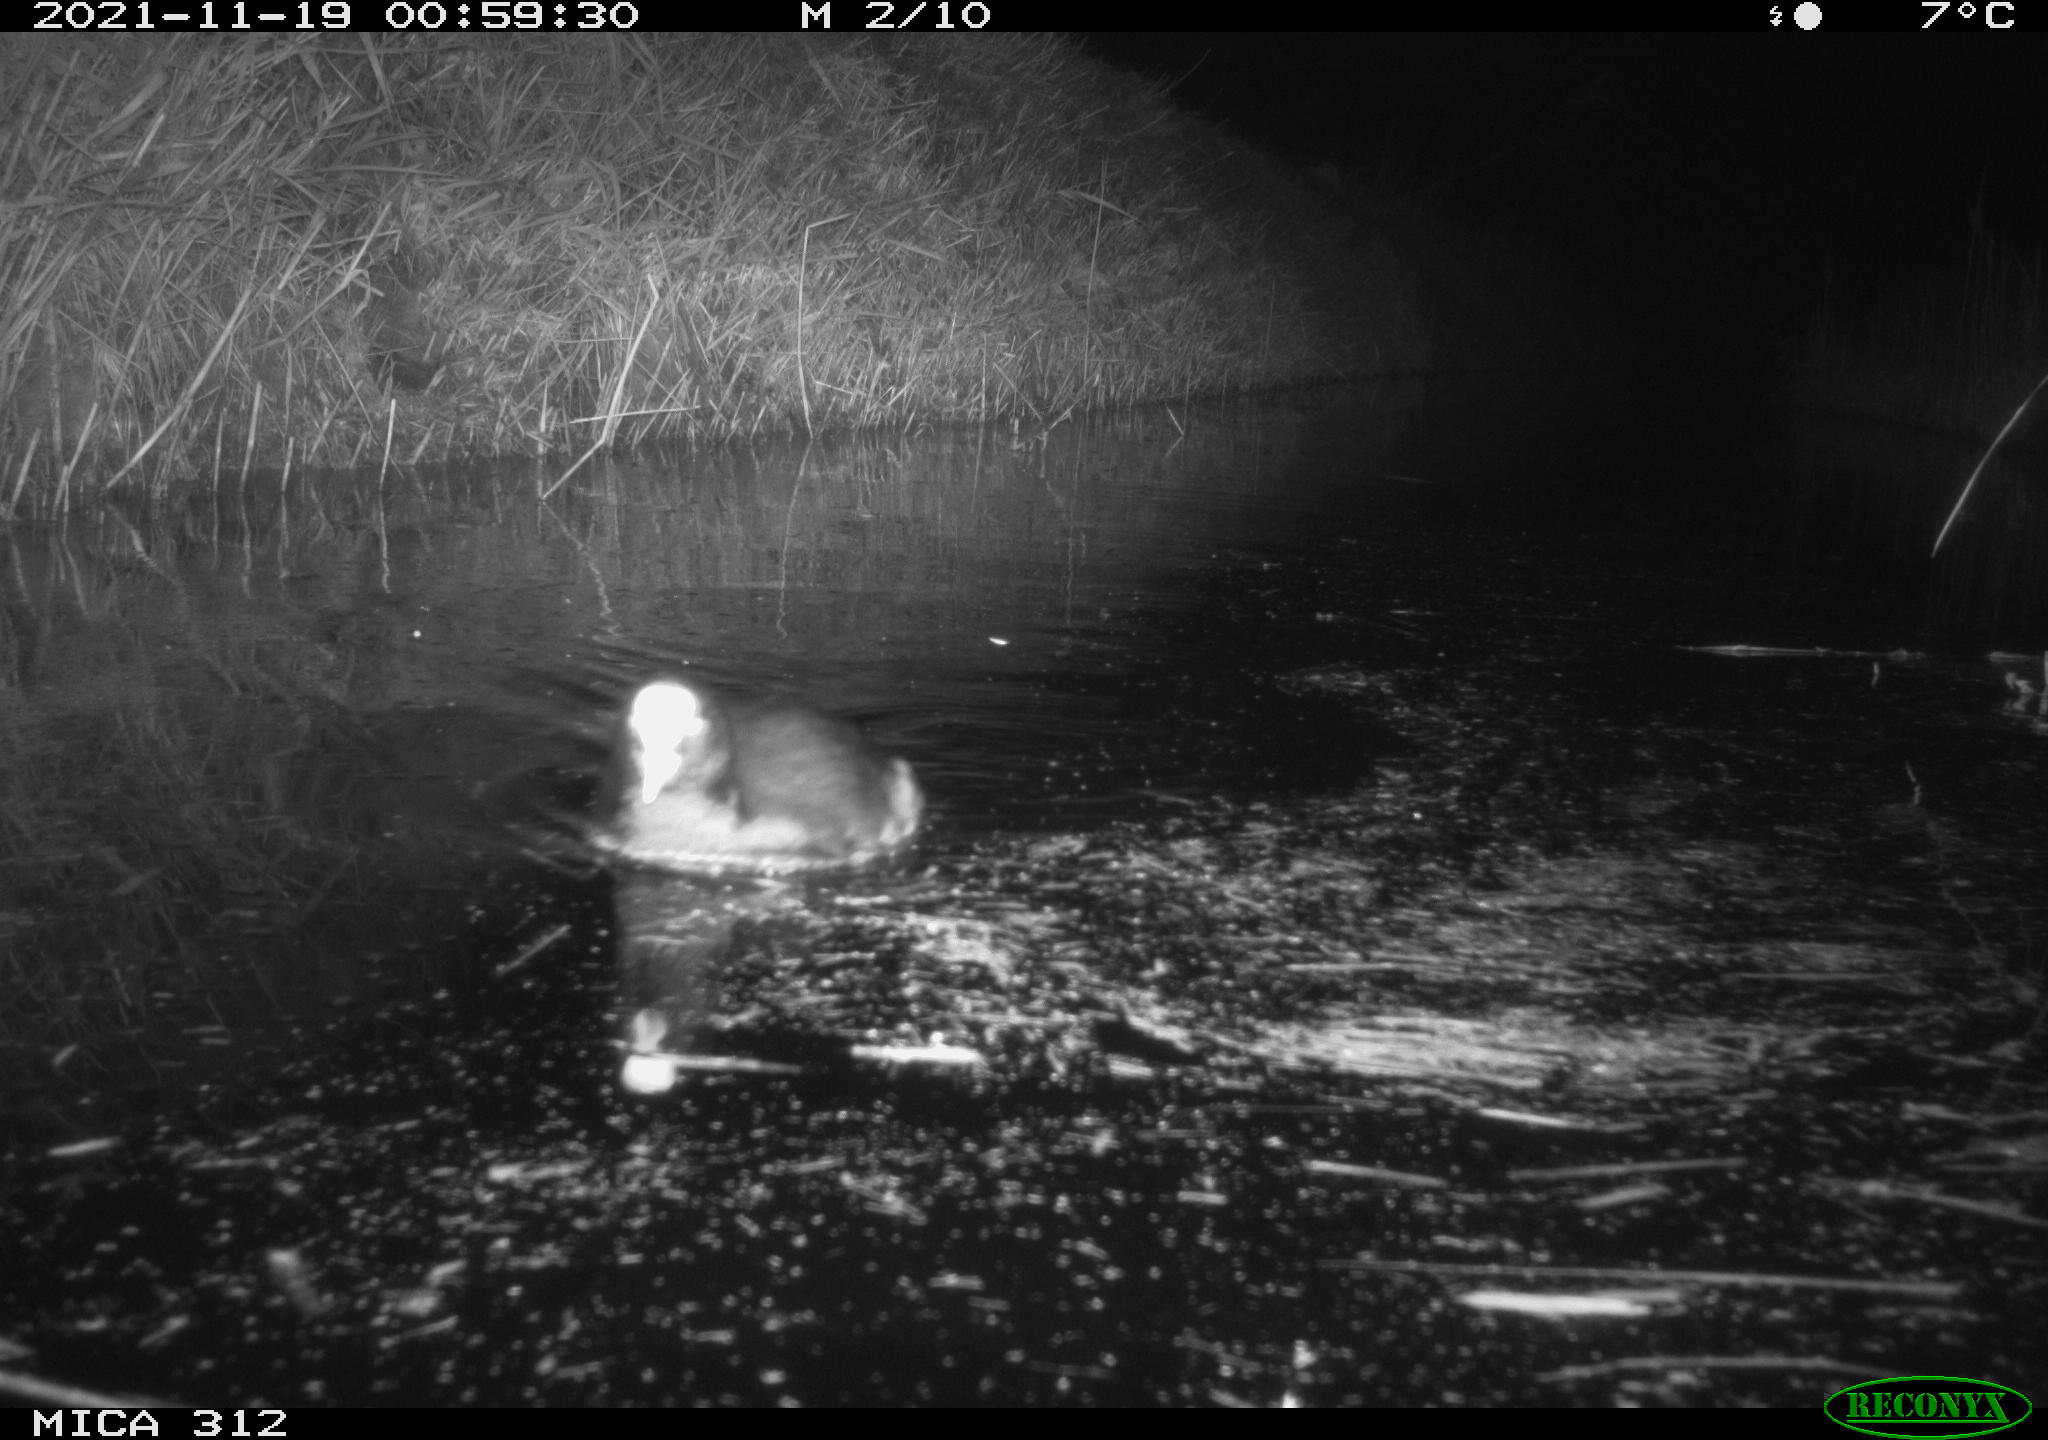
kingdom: Animalia
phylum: Chordata
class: Aves
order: Gruiformes
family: Rallidae
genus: Fulica
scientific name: Fulica atra
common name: Eurasian coot
